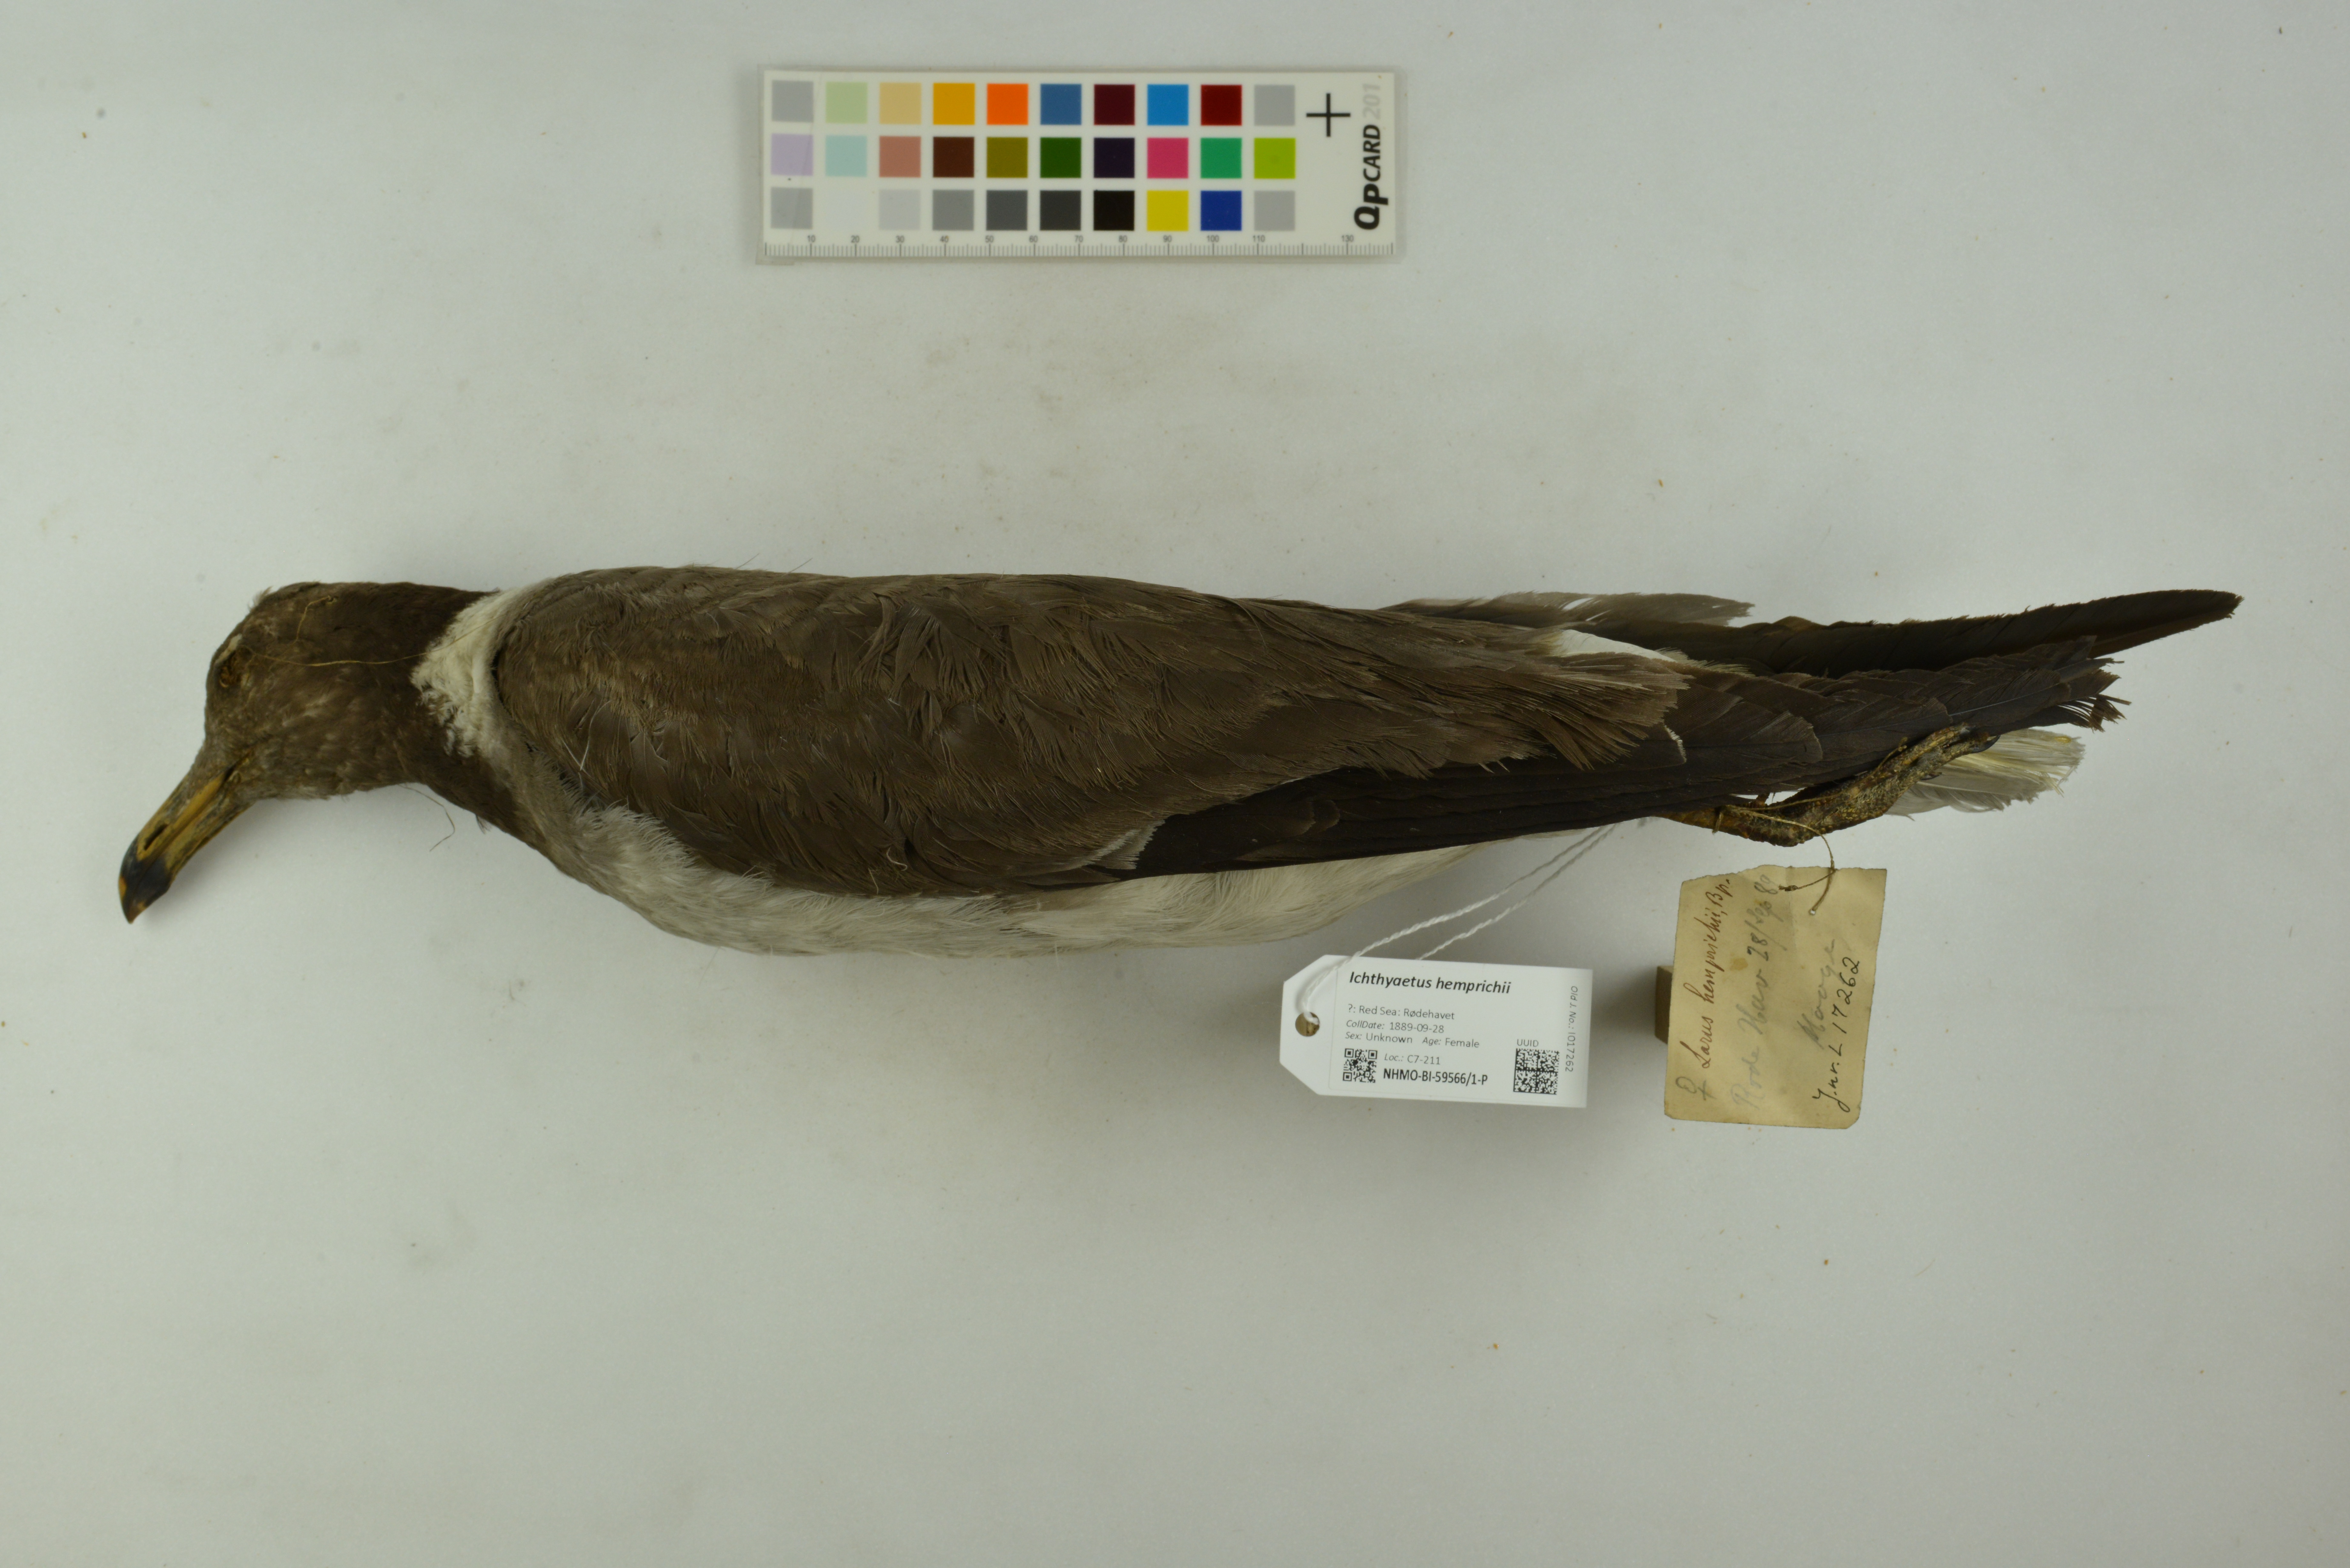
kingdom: Animalia
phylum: Chordata
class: Aves
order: Charadriiformes
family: Laridae
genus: Ichthyaetus
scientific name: Ichthyaetus hemprichii
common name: Sooty gull
